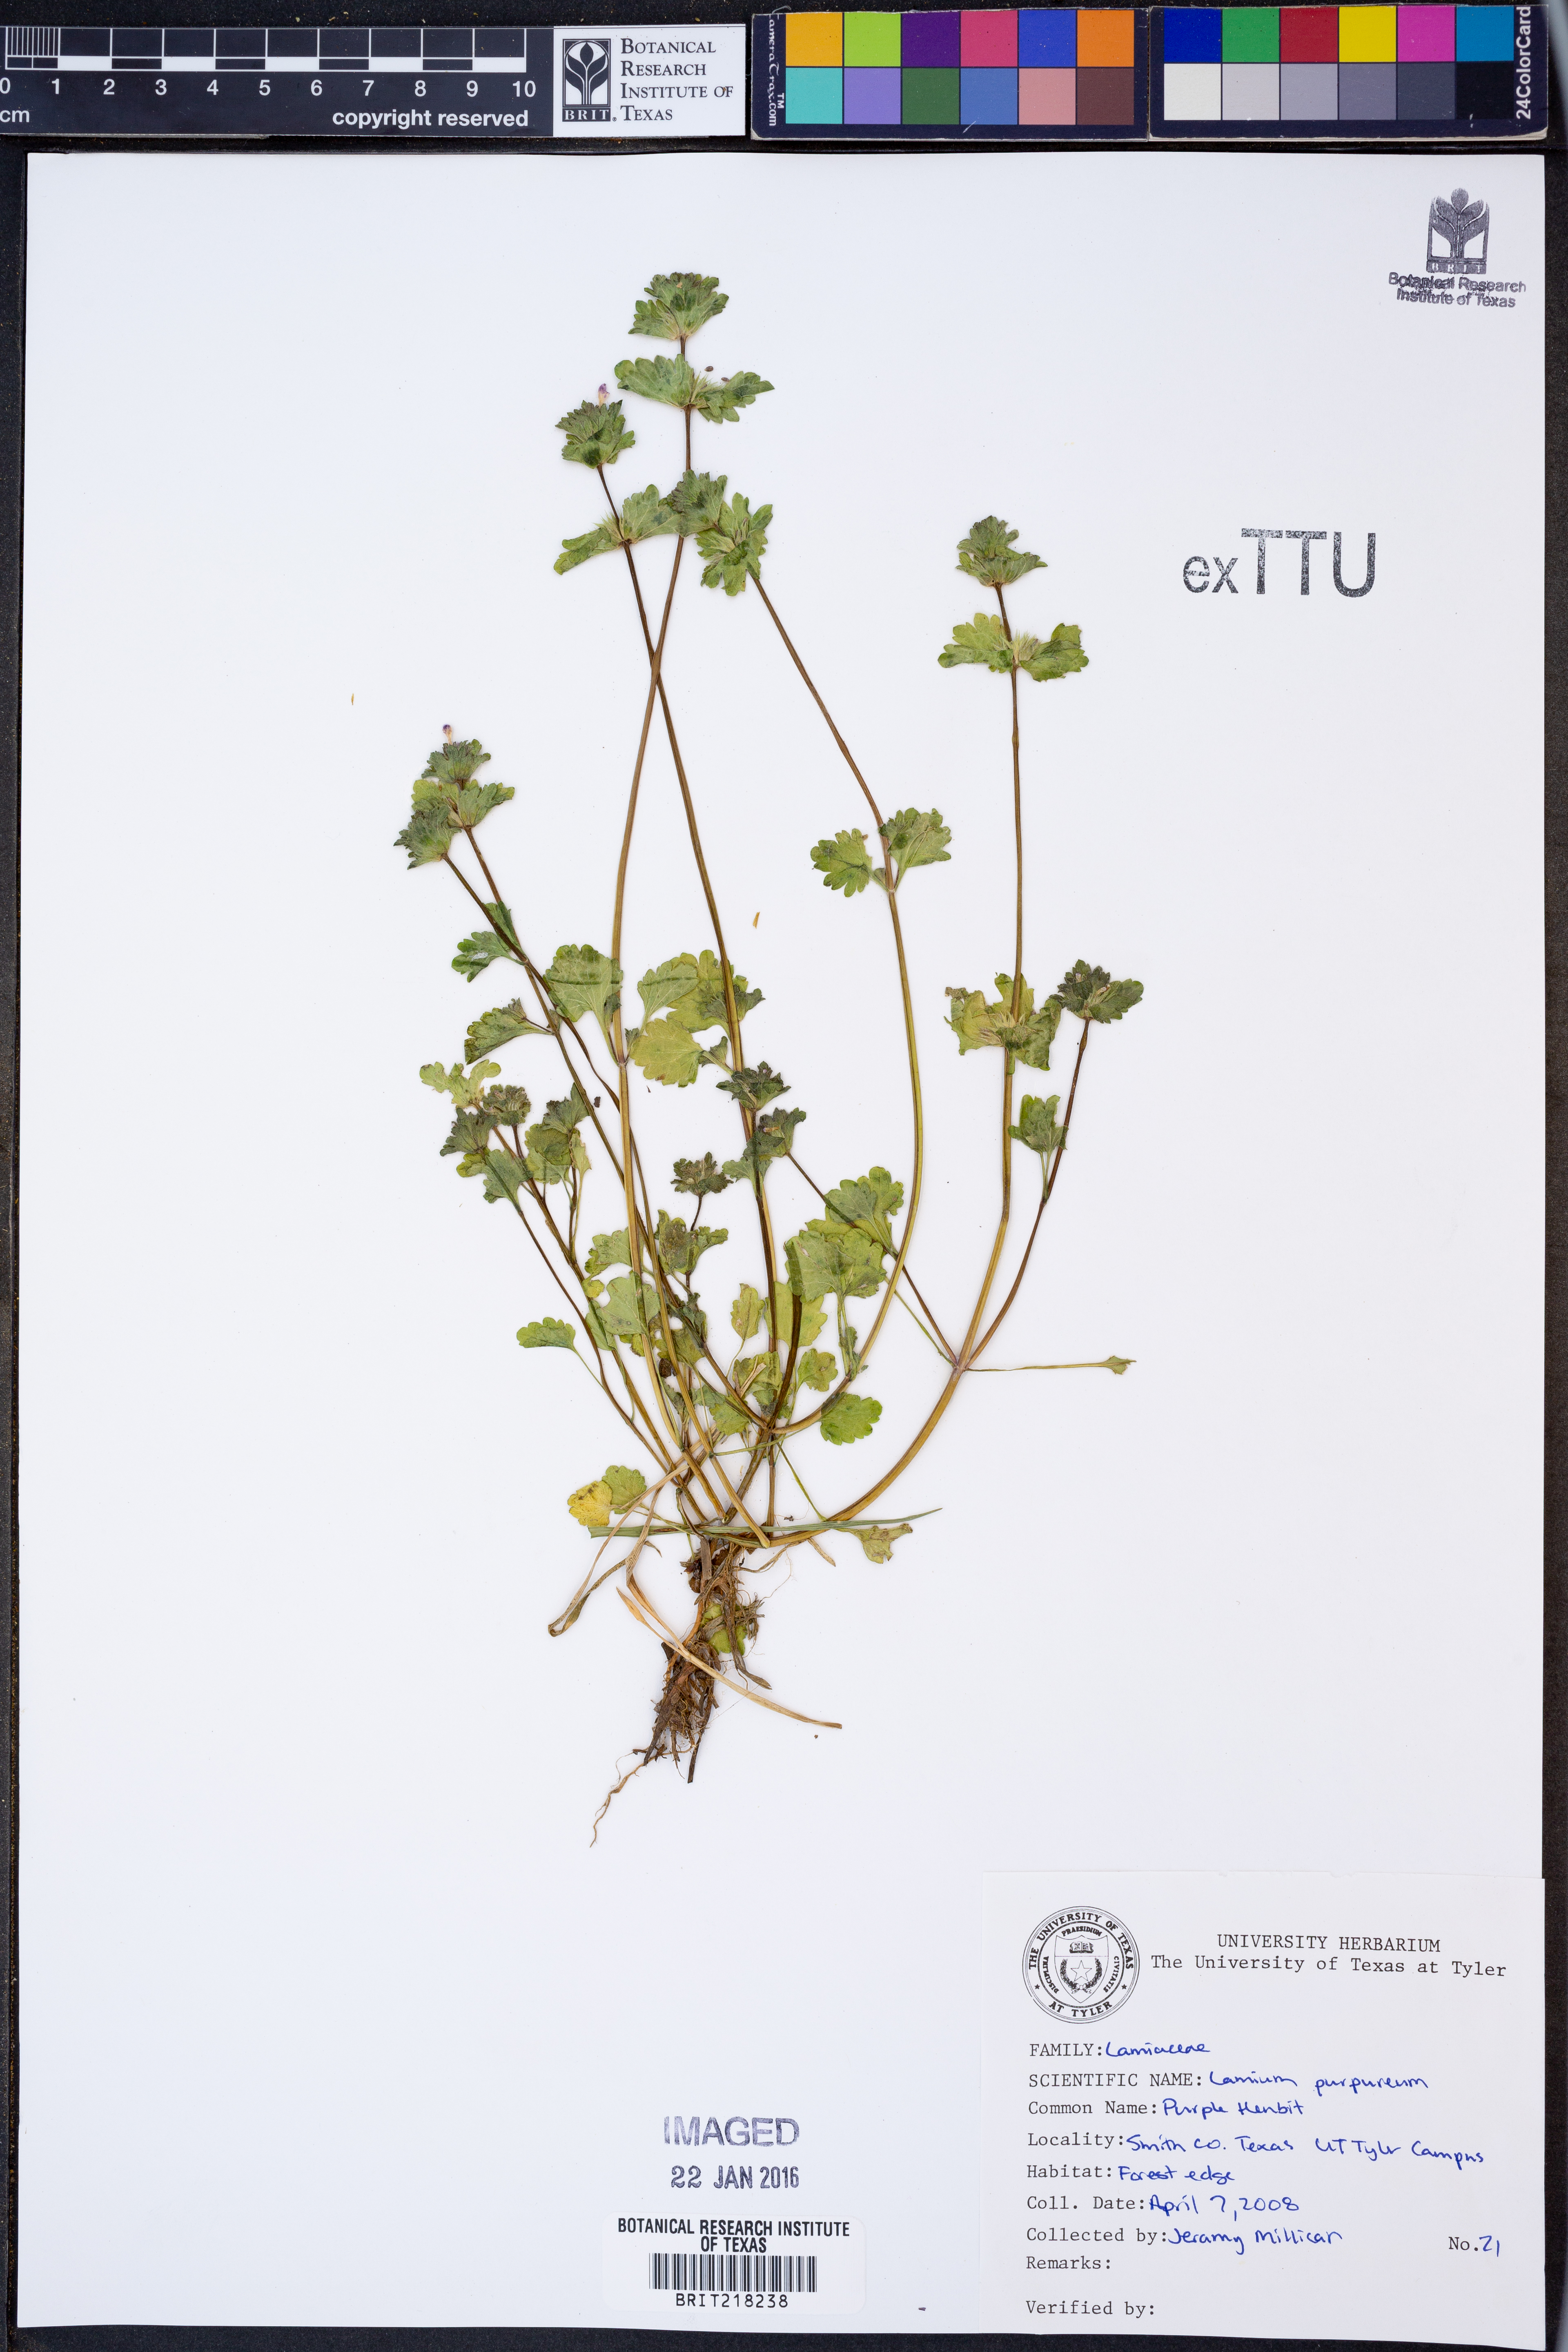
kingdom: Plantae
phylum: Tracheophyta
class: Magnoliopsida
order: Lamiales
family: Lamiaceae
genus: Lamium
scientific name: Lamium purpureum
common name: Red dead-nettle
